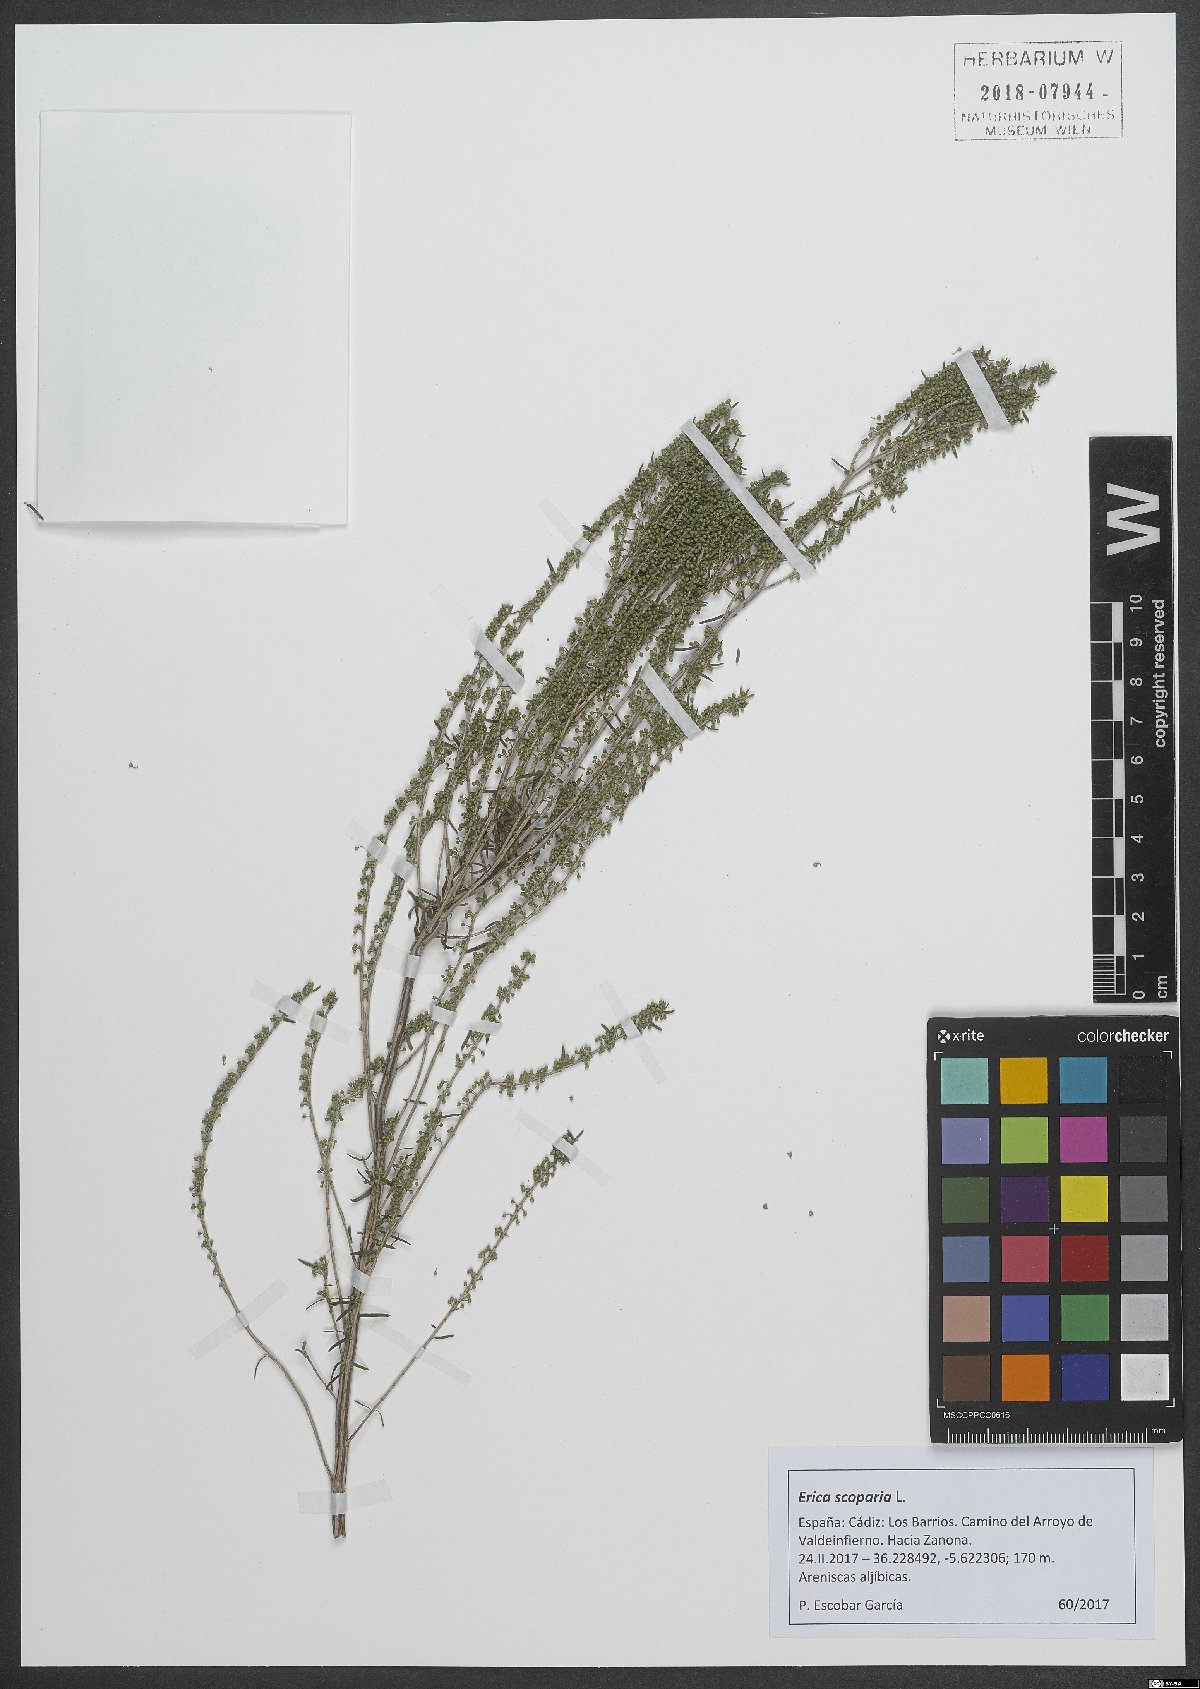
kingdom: Plantae
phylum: Tracheophyta
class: Magnoliopsida
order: Ericales
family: Ericaceae
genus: Erica
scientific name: Erica scoparia
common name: Green heather
